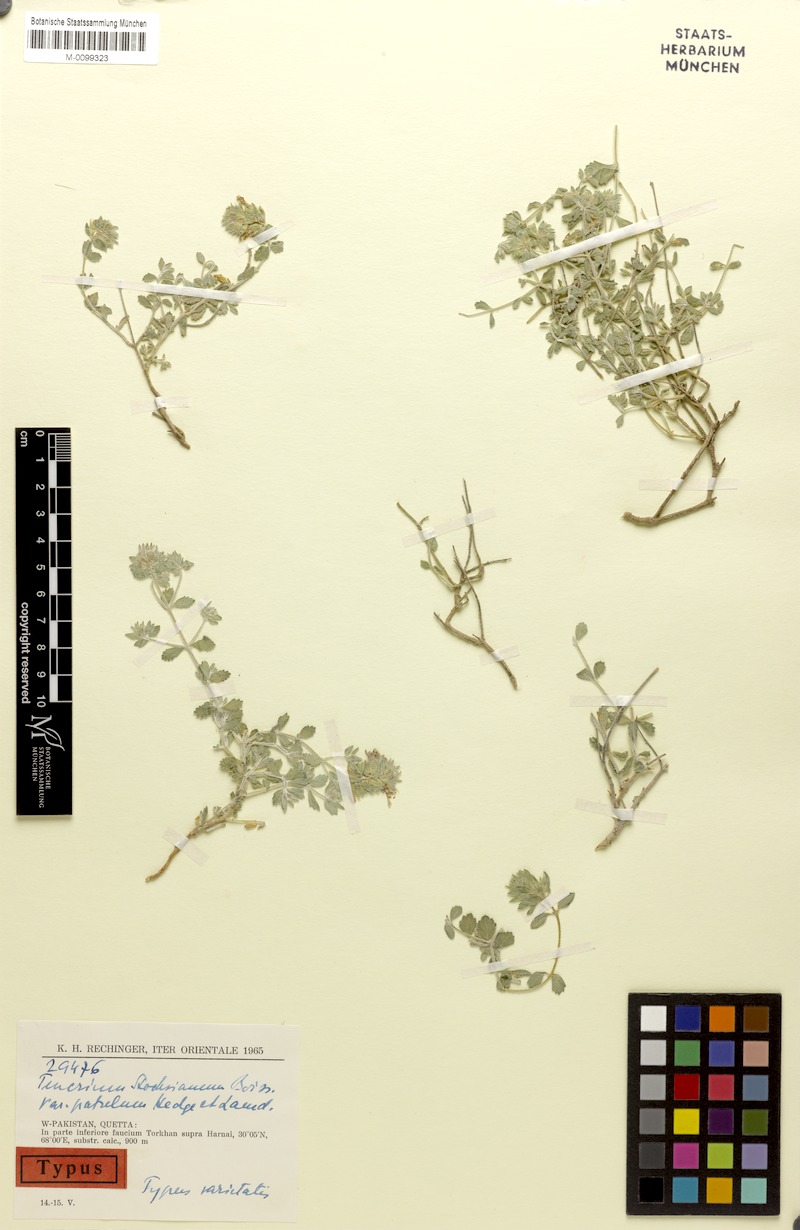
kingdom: Plantae
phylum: Tracheophyta
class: Magnoliopsida
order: Lamiales
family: Lamiaceae
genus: Teucrium
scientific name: Teucrium stocksianum
